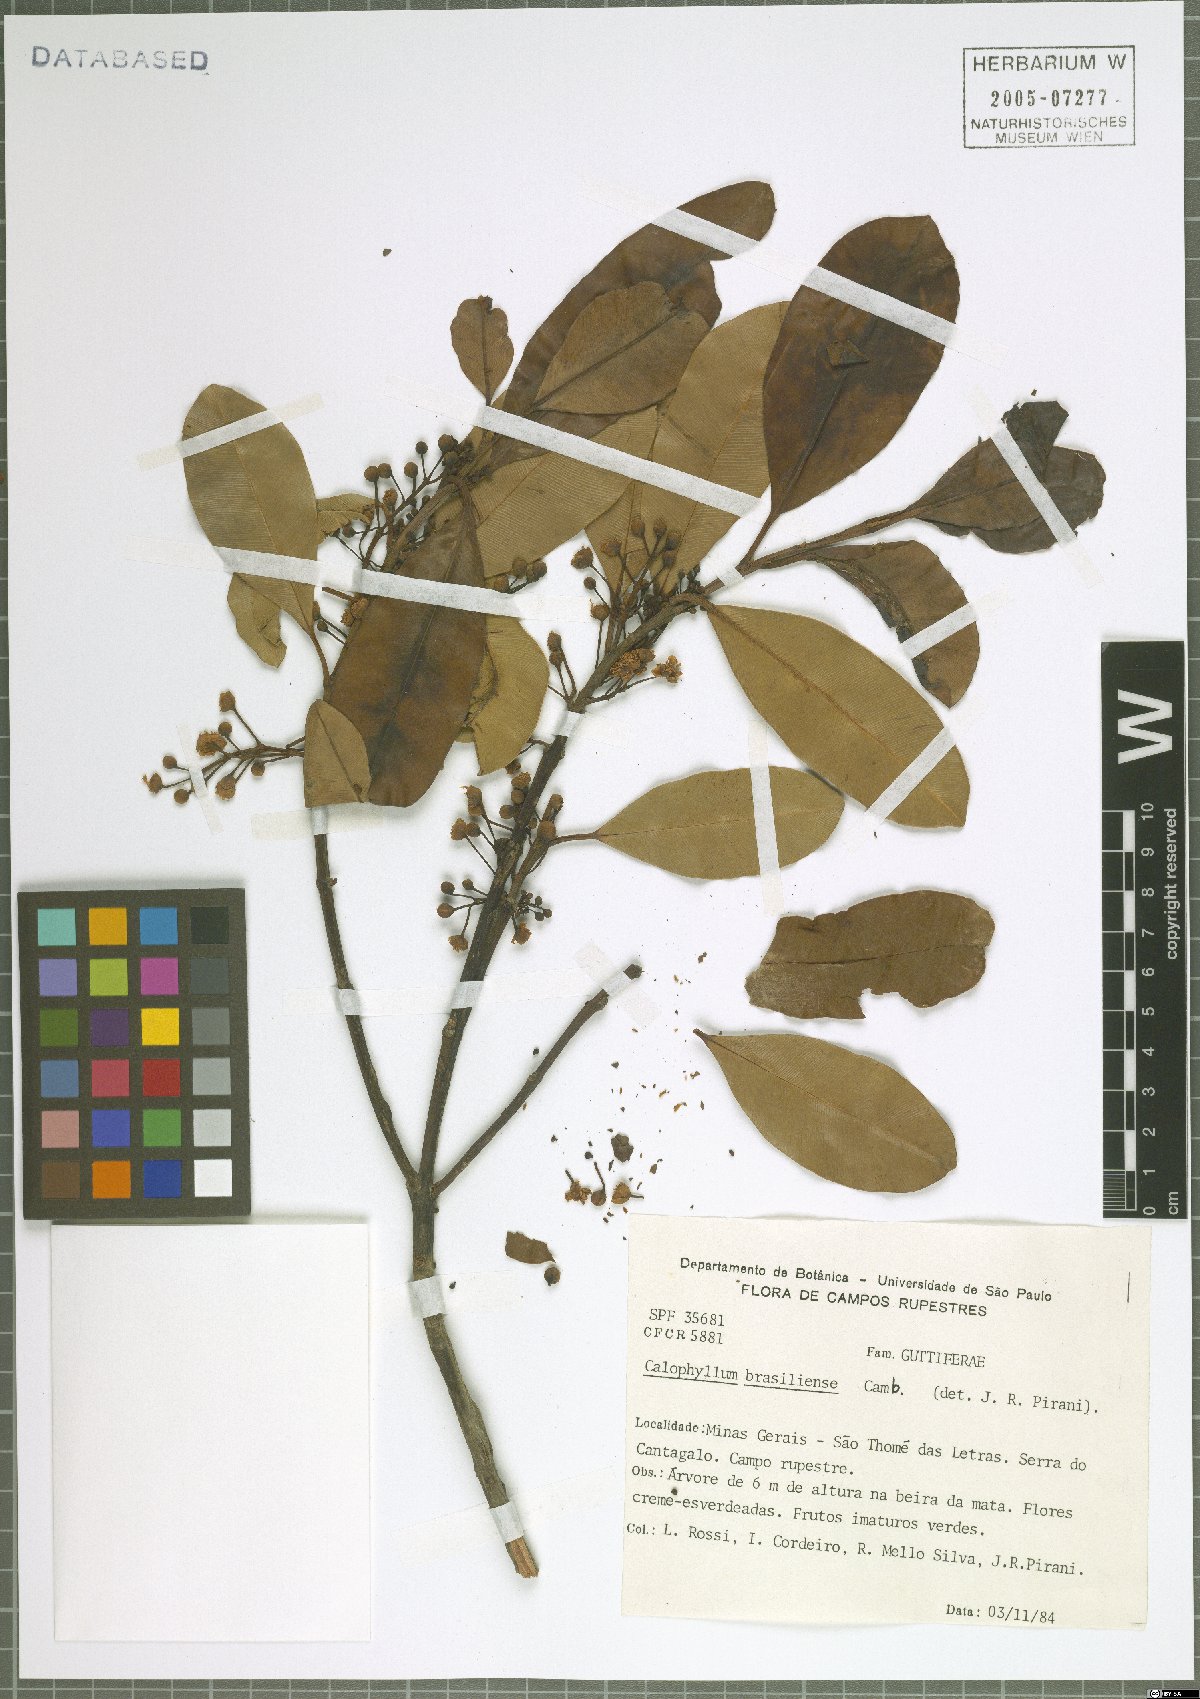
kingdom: Plantae
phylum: Tracheophyta
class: Magnoliopsida
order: Malpighiales
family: Calophyllaceae
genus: Calophyllum
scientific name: Calophyllum brasiliense
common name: Santa maria
